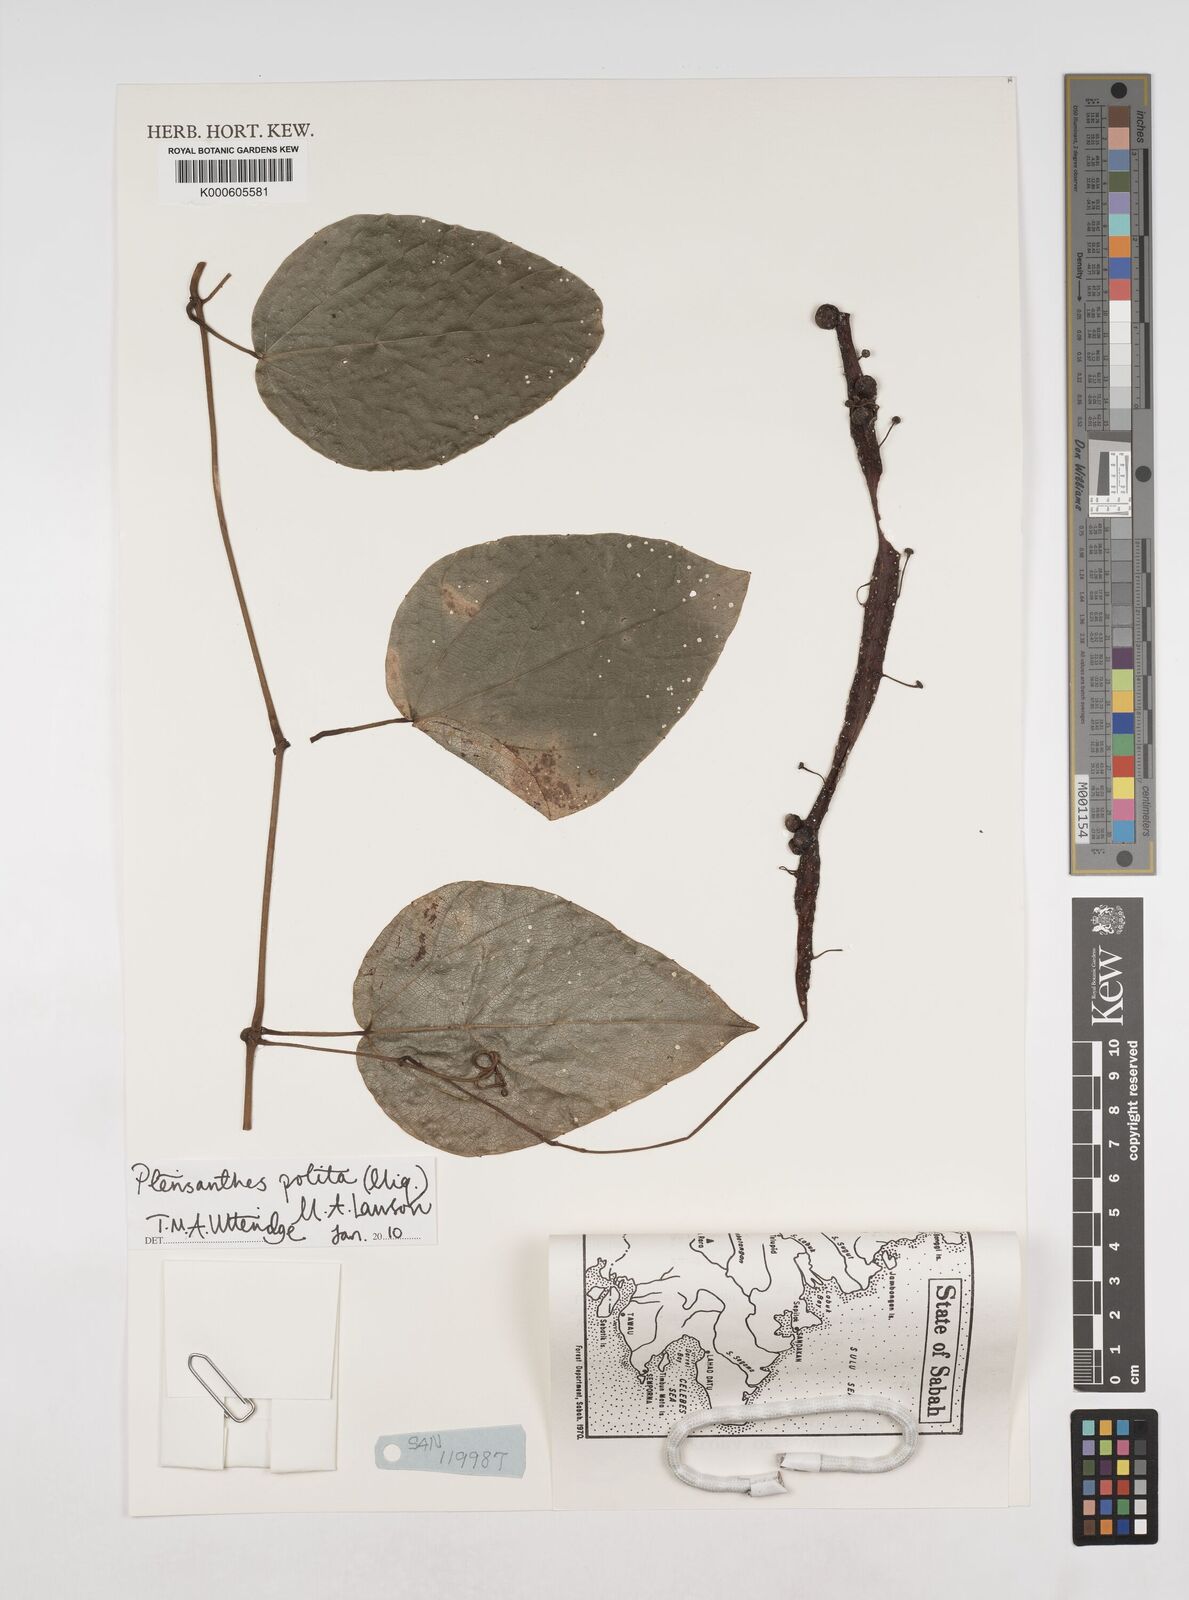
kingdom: Plantae
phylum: Tracheophyta
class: Magnoliopsida
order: Vitales
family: Vitaceae
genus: Ampelocissus
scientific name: Ampelocissus polita
